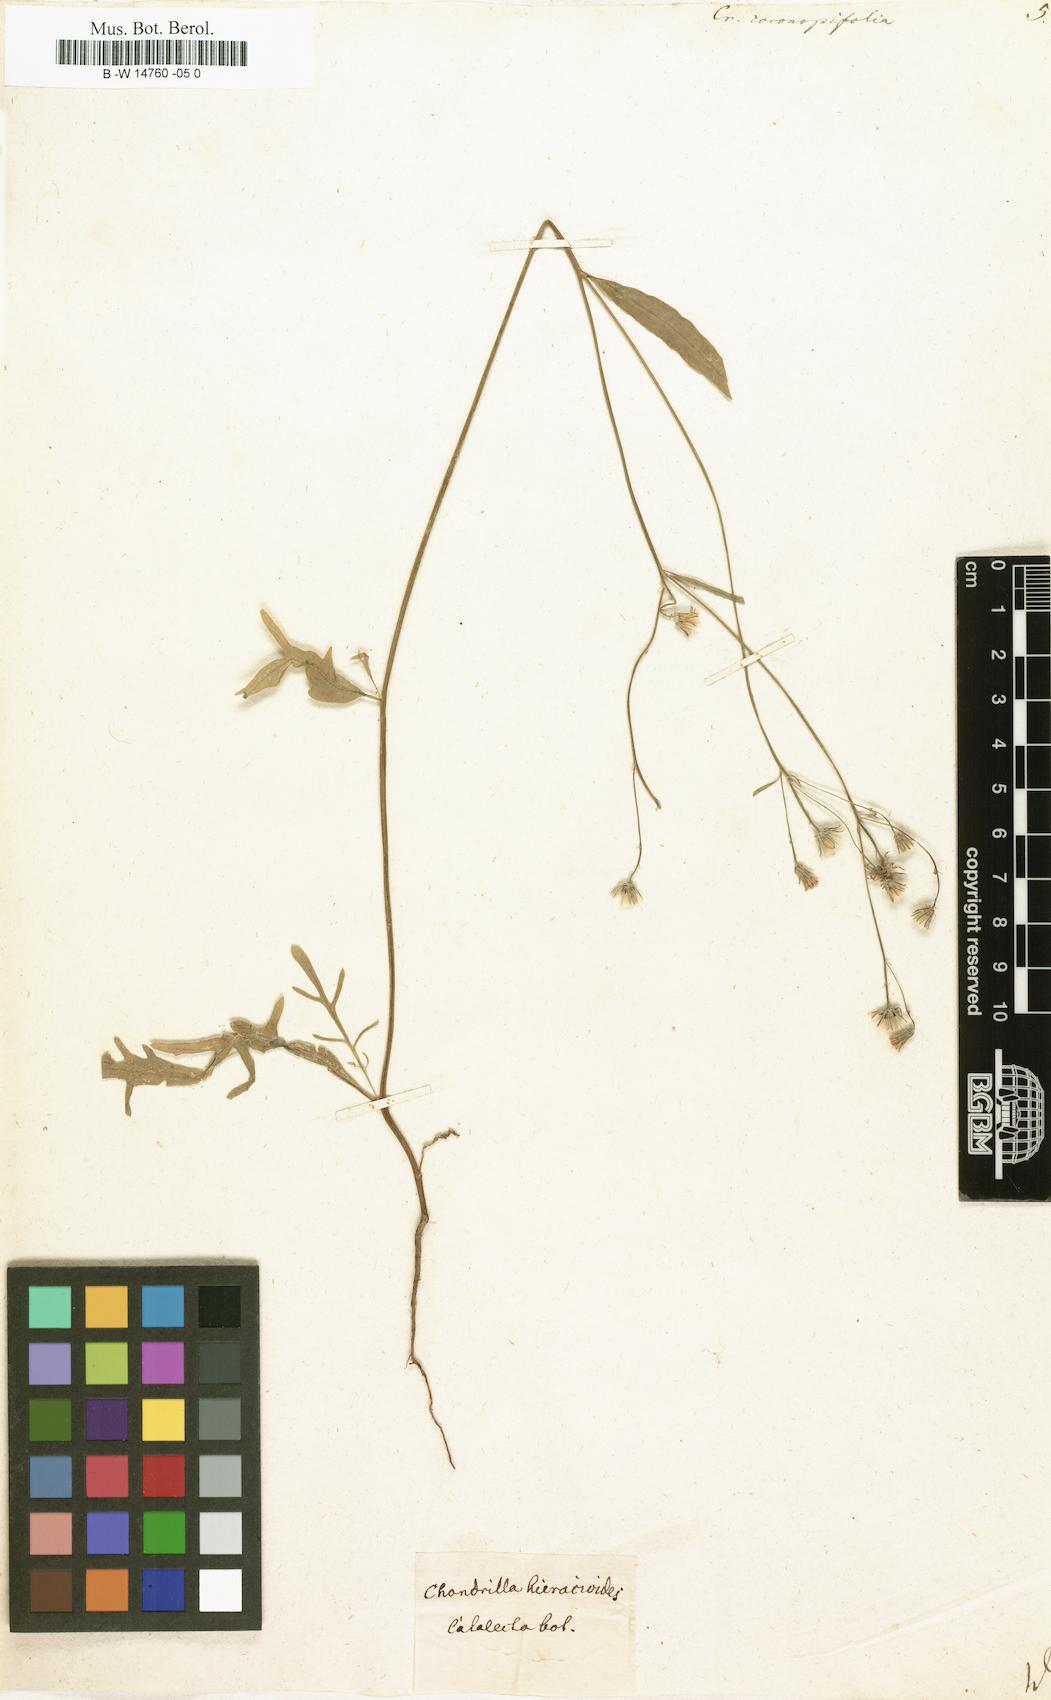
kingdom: Plantae
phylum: Tracheophyta
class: Magnoliopsida
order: Asterales
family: Asteraceae
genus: Tolpis
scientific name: Tolpis coronopifolia
